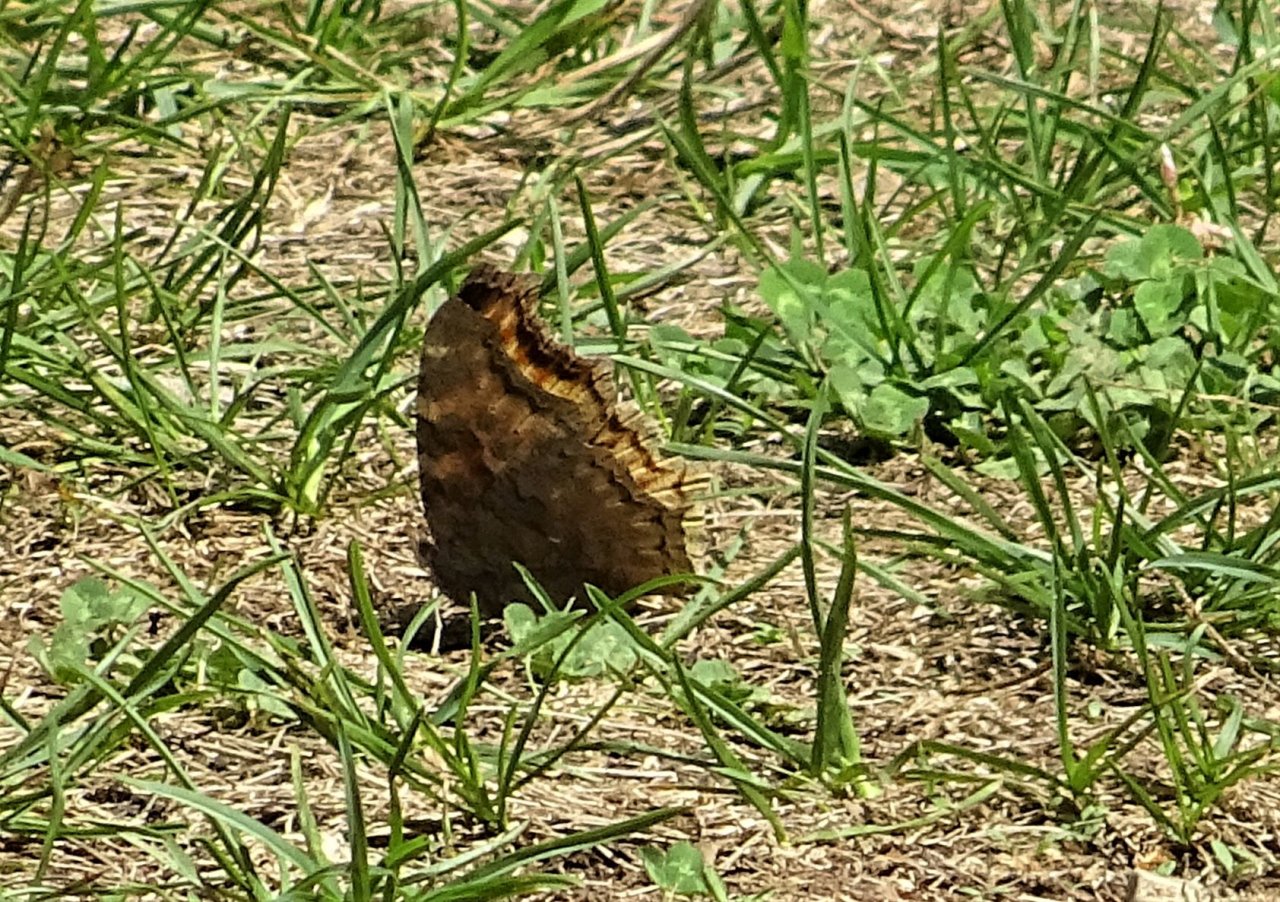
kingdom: Animalia
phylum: Arthropoda
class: Insecta
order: Lepidoptera
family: Nymphalidae
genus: Polygonia
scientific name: Polygonia vaualbum
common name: Compton Tortoiseshell
